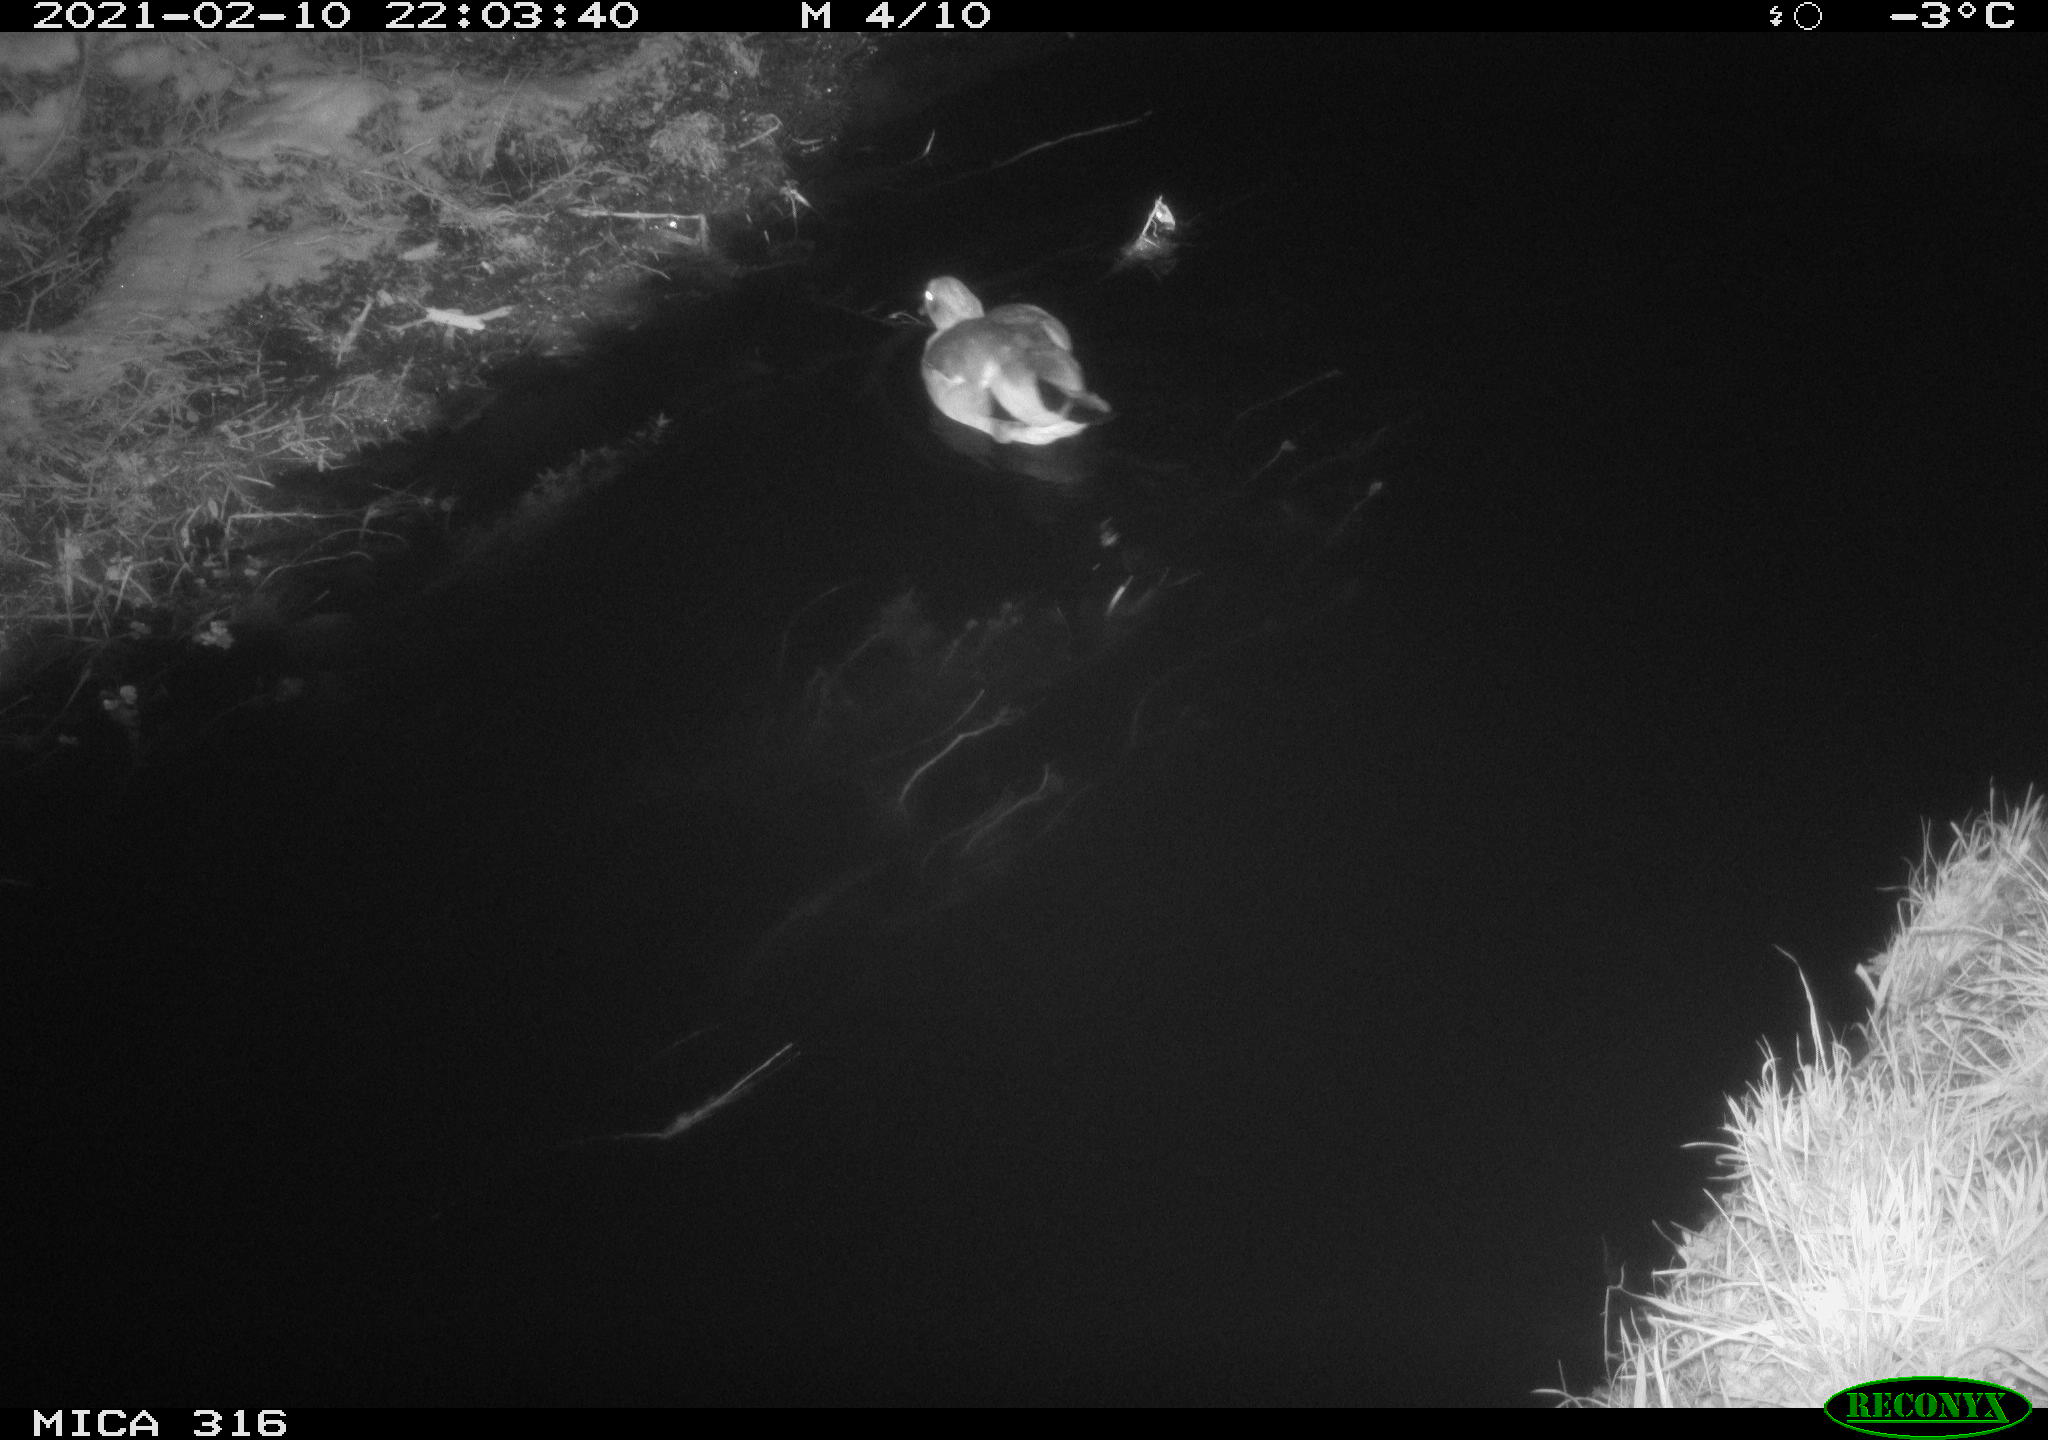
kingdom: Animalia
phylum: Chordata
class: Aves
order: Gruiformes
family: Rallidae
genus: Fulica
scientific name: Fulica atra
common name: Eurasian coot
